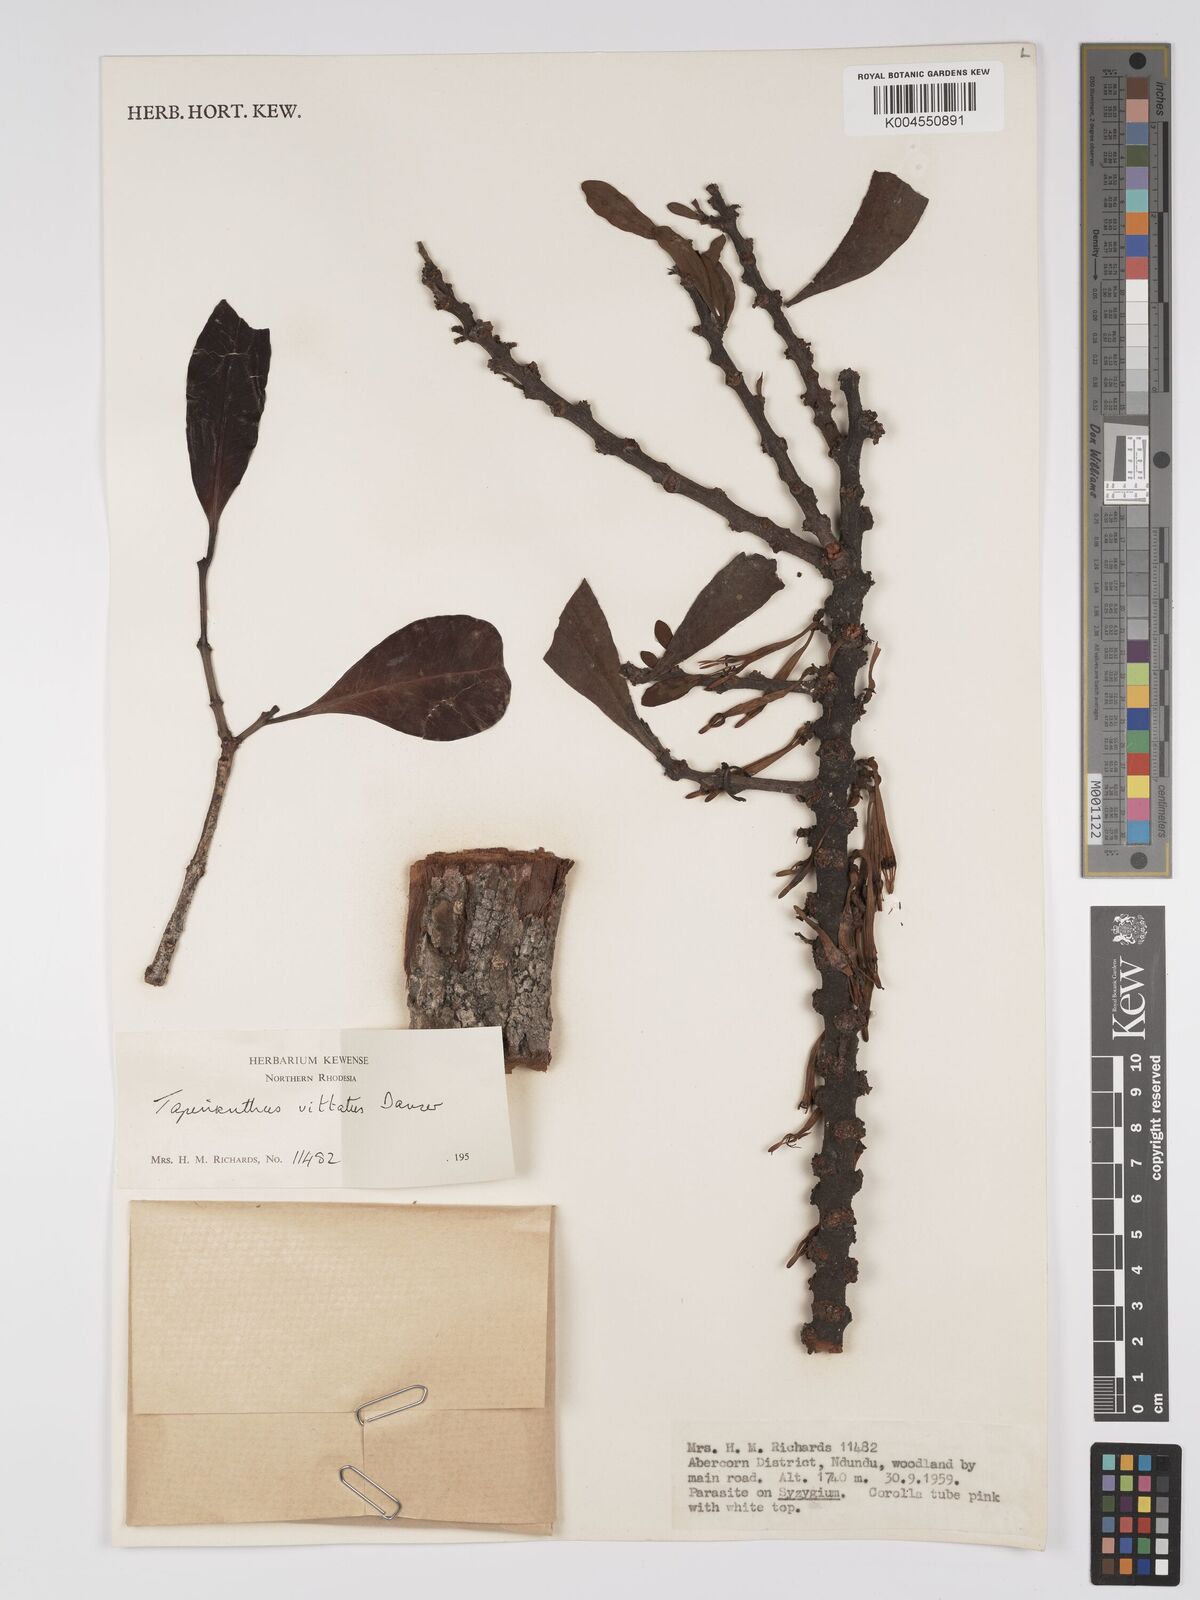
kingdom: Plantae
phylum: Tracheophyta
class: Magnoliopsida
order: Santalales
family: Loranthaceae
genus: Agelanthus
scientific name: Agelanthus zizyphifolius
